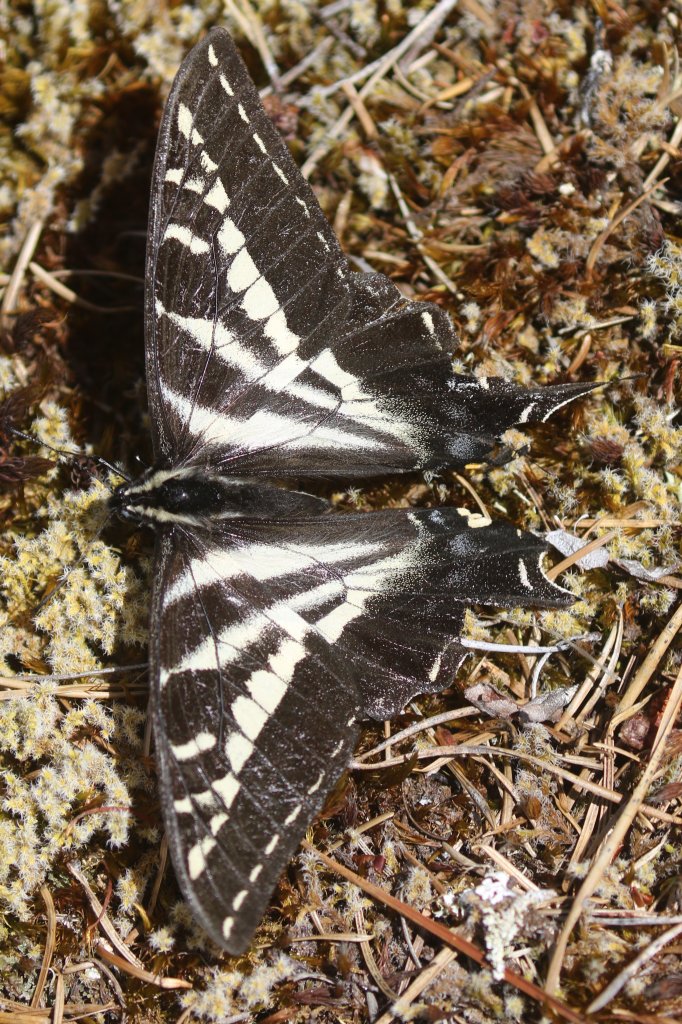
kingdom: Animalia
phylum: Arthropoda
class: Insecta
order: Lepidoptera
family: Papilionidae
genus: Pterourus
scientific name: Pterourus eurymedon
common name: Pale Swallowtail
